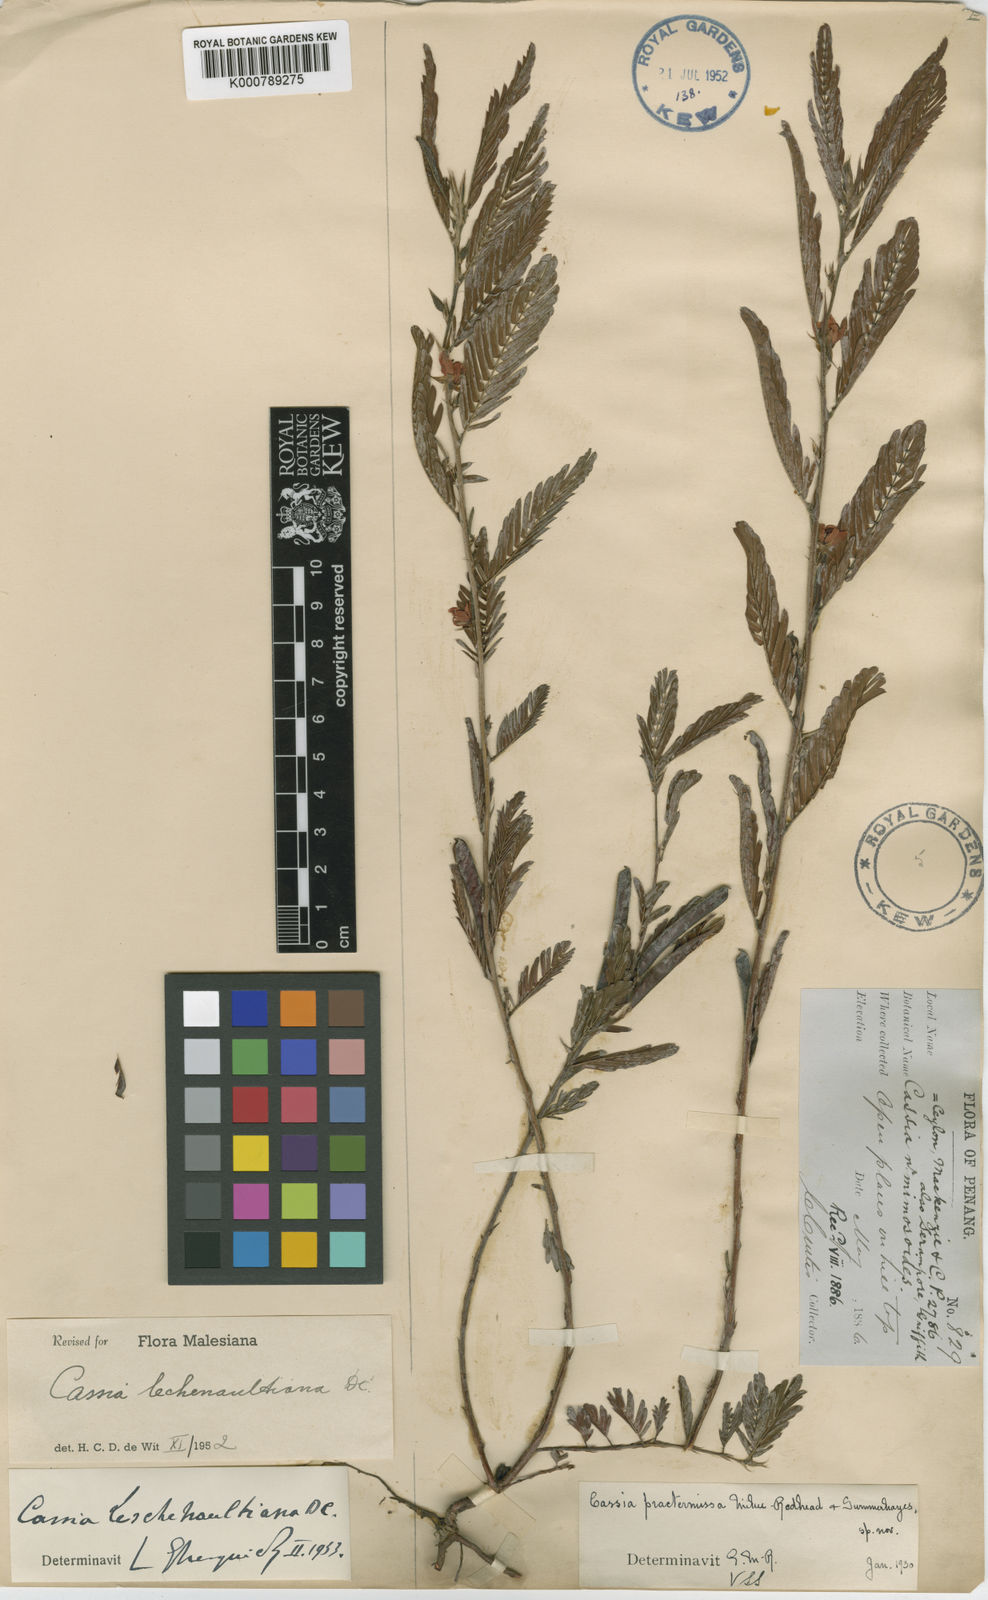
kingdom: Plantae
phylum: Tracheophyta
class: Magnoliopsida
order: Fabales
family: Fabaceae
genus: Chamaecrista
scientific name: Chamaecrista leschenaultiana
